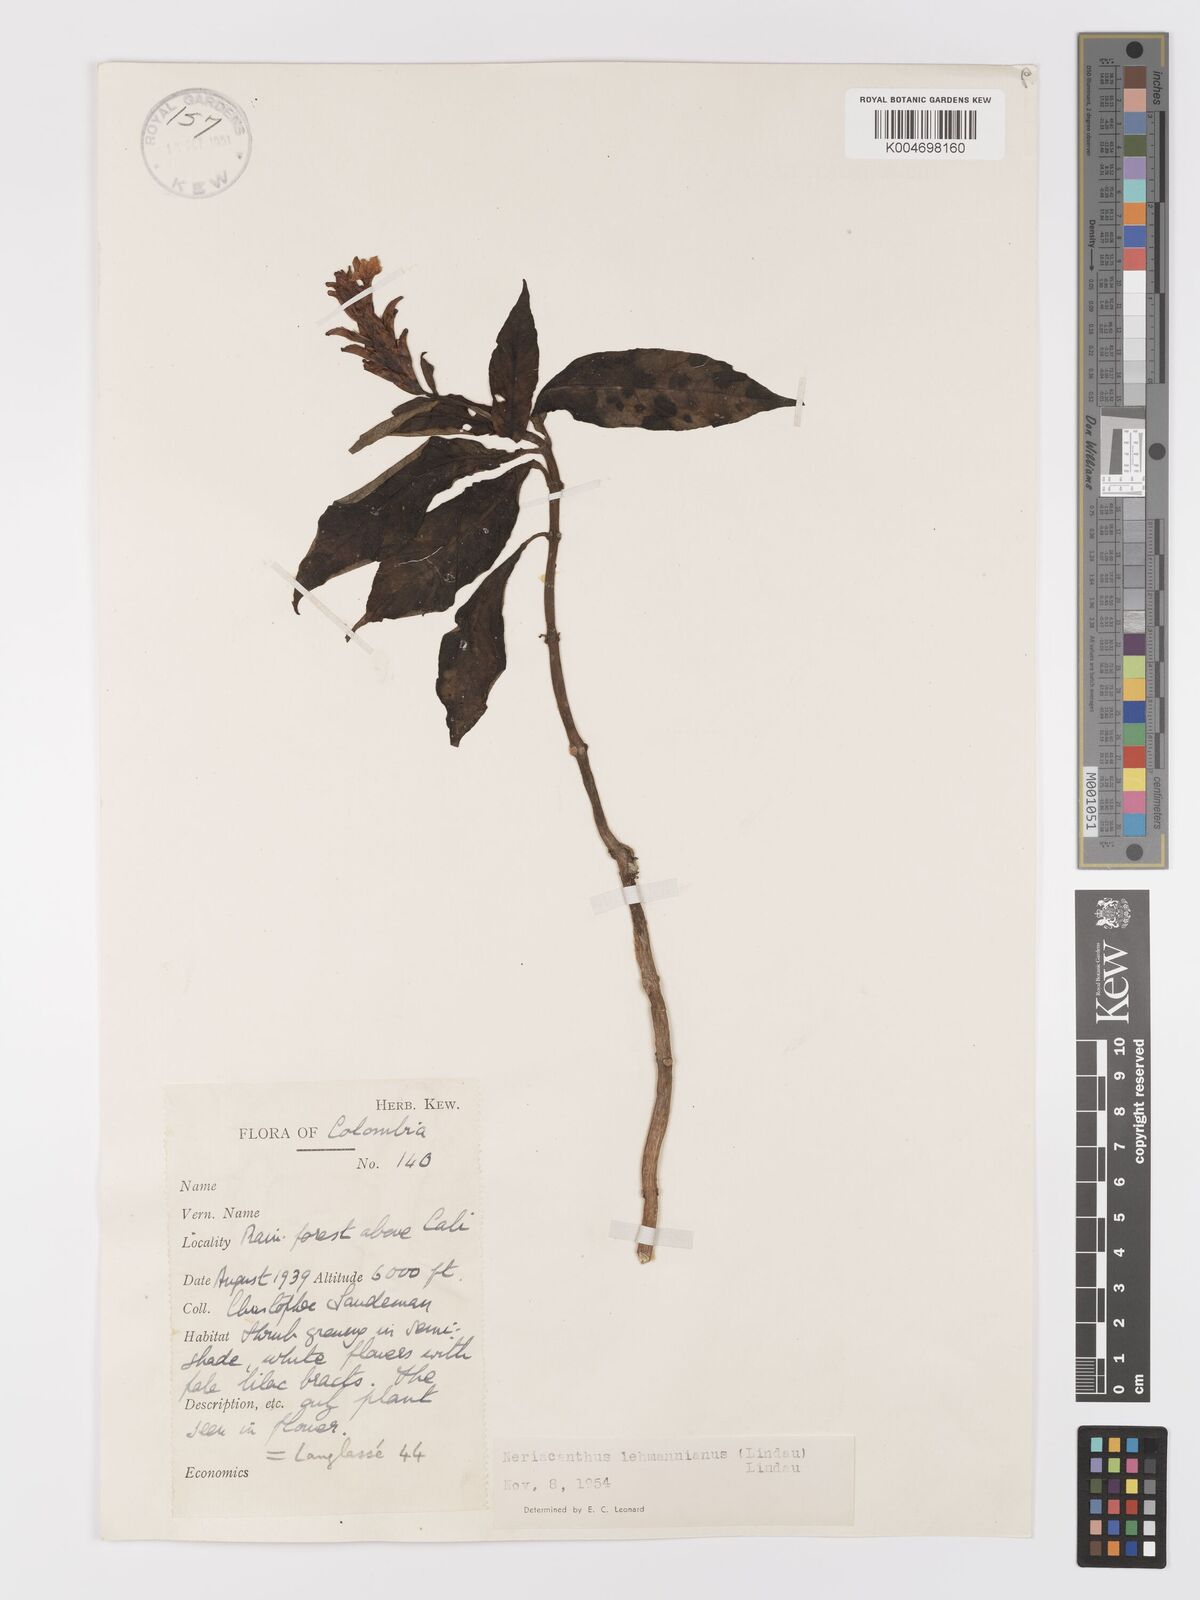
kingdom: Plantae
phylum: Tracheophyta
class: Magnoliopsida
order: Lamiales
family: Acanthaceae
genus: Neriacanthus
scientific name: Neriacanthus lehmannianus
